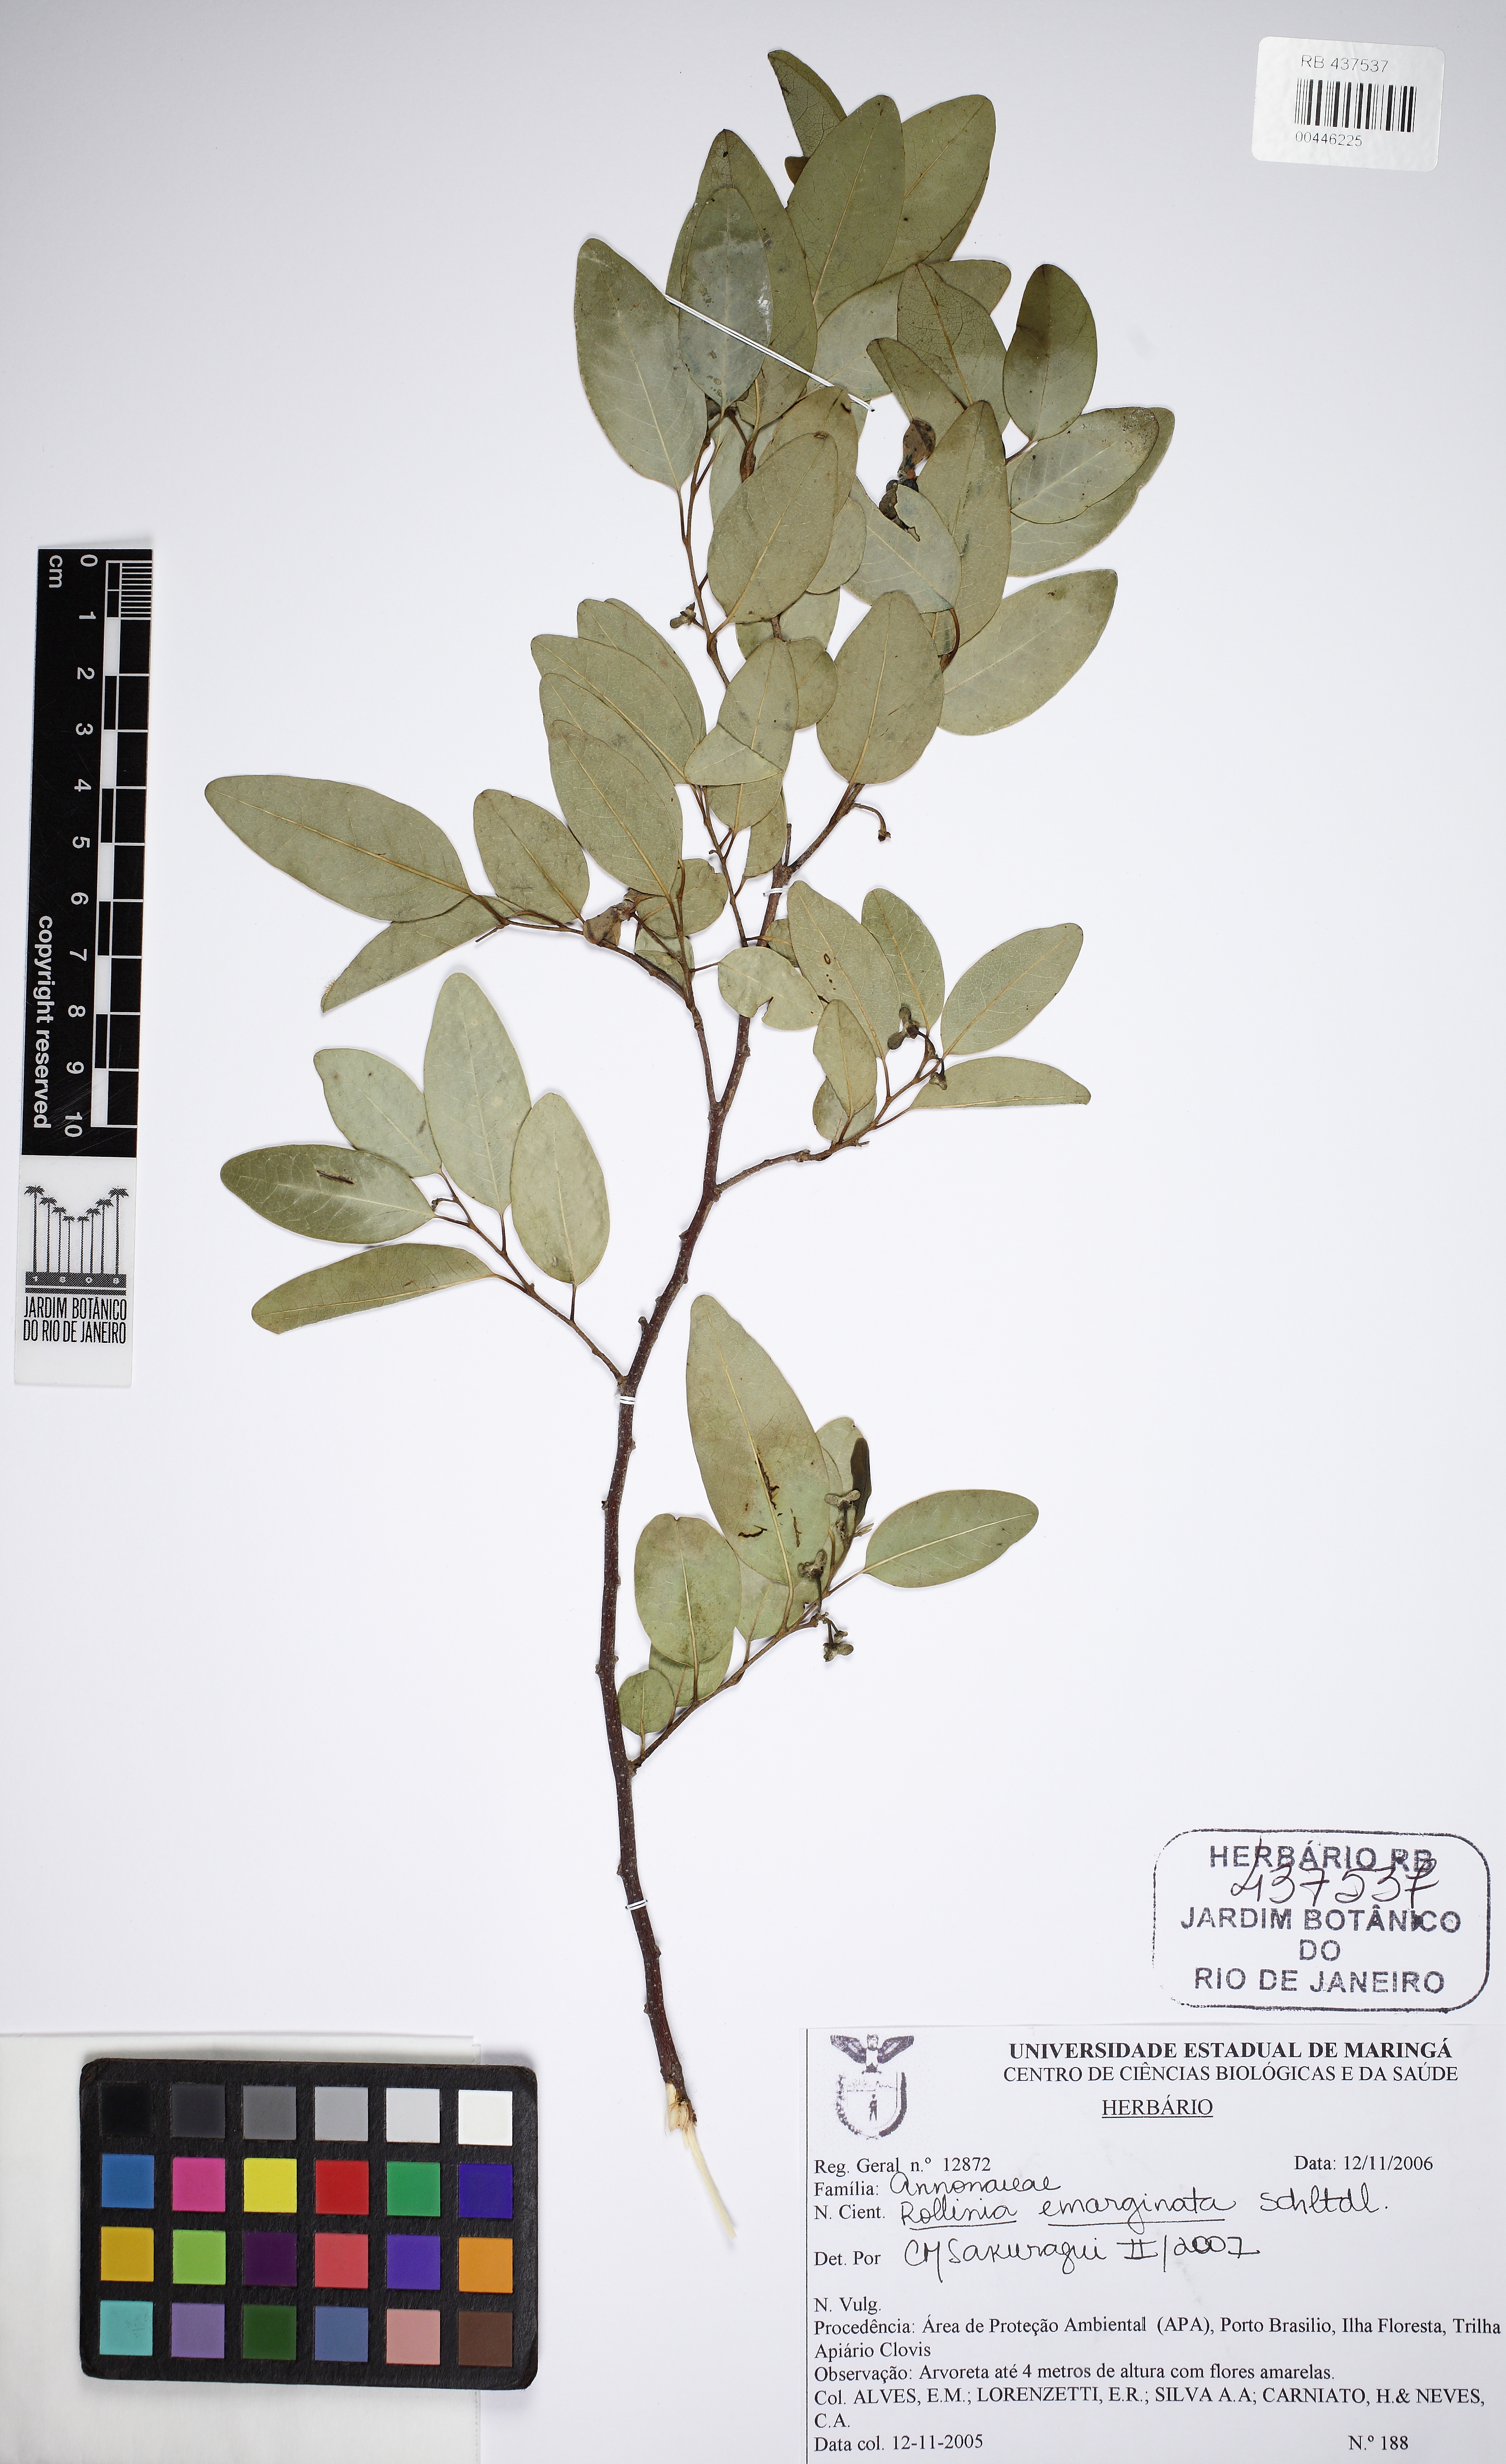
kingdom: Plantae
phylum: Tracheophyta
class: Magnoliopsida
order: Magnoliales
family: Annonaceae
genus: Annona
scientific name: Annona emarginata
